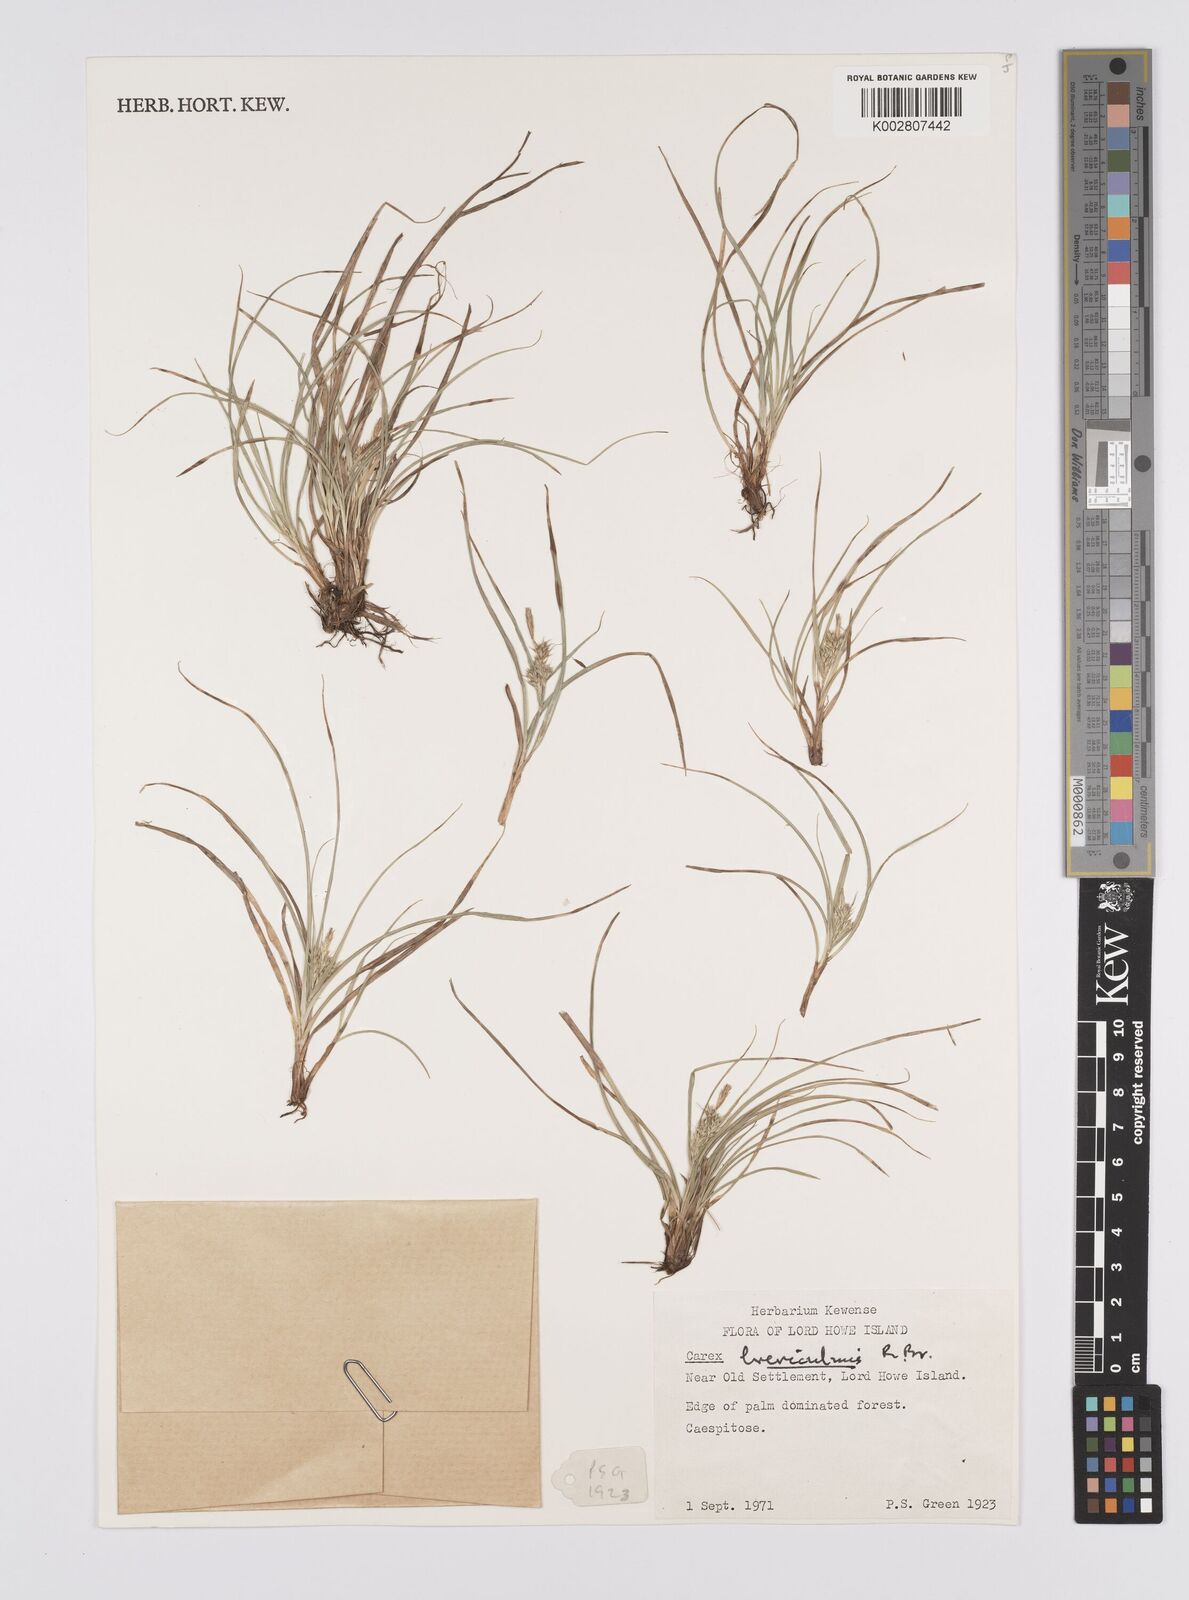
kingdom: Plantae
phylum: Tracheophyta
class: Liliopsida
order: Poales
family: Cyperaceae
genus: Carex
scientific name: Carex breviculmis
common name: Asian shortstem sedge
